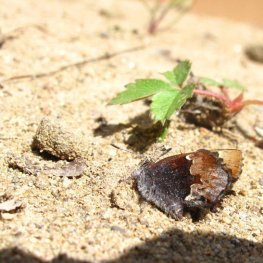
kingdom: Animalia
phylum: Arthropoda
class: Insecta
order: Lepidoptera
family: Lycaenidae
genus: Incisalia
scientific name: Incisalia henrici
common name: Henry's Elfin
